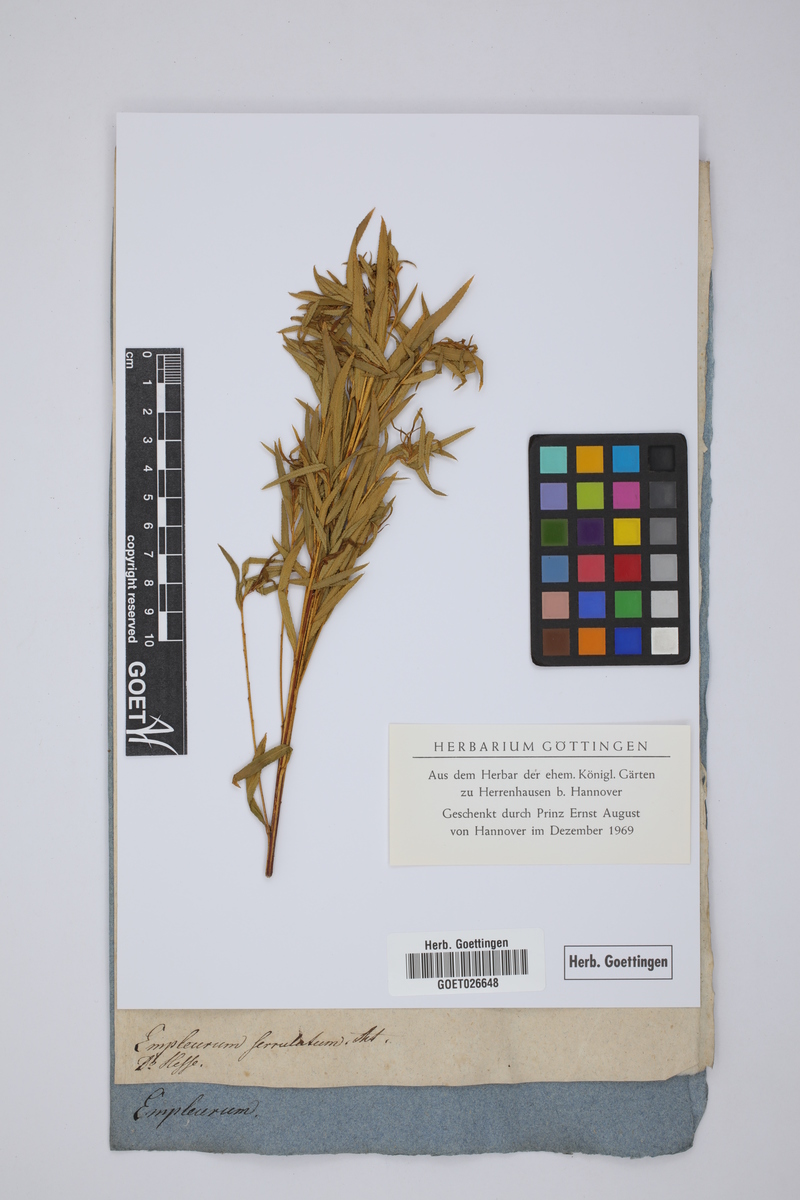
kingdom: Plantae
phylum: Tracheophyta
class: Magnoliopsida
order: Sapindales
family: Rutaceae
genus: Empleurum
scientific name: Empleurum unicapsulare
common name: False buchu
